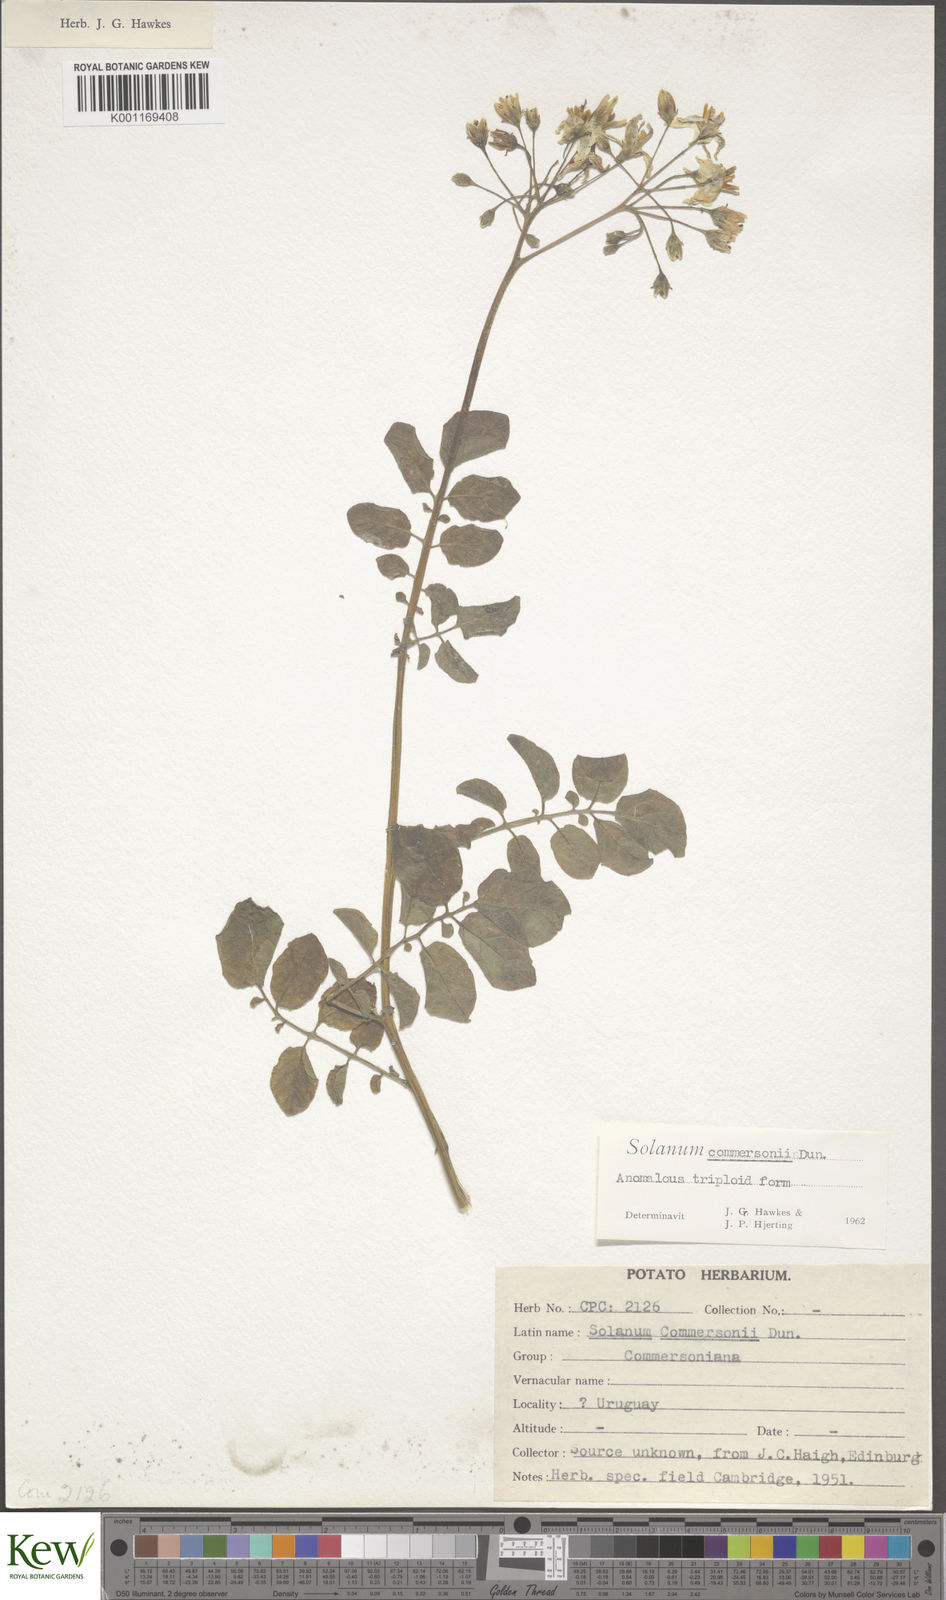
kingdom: Plantae
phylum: Tracheophyta
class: Magnoliopsida
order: Solanales
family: Solanaceae
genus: Solanum
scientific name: Solanum commersonii
